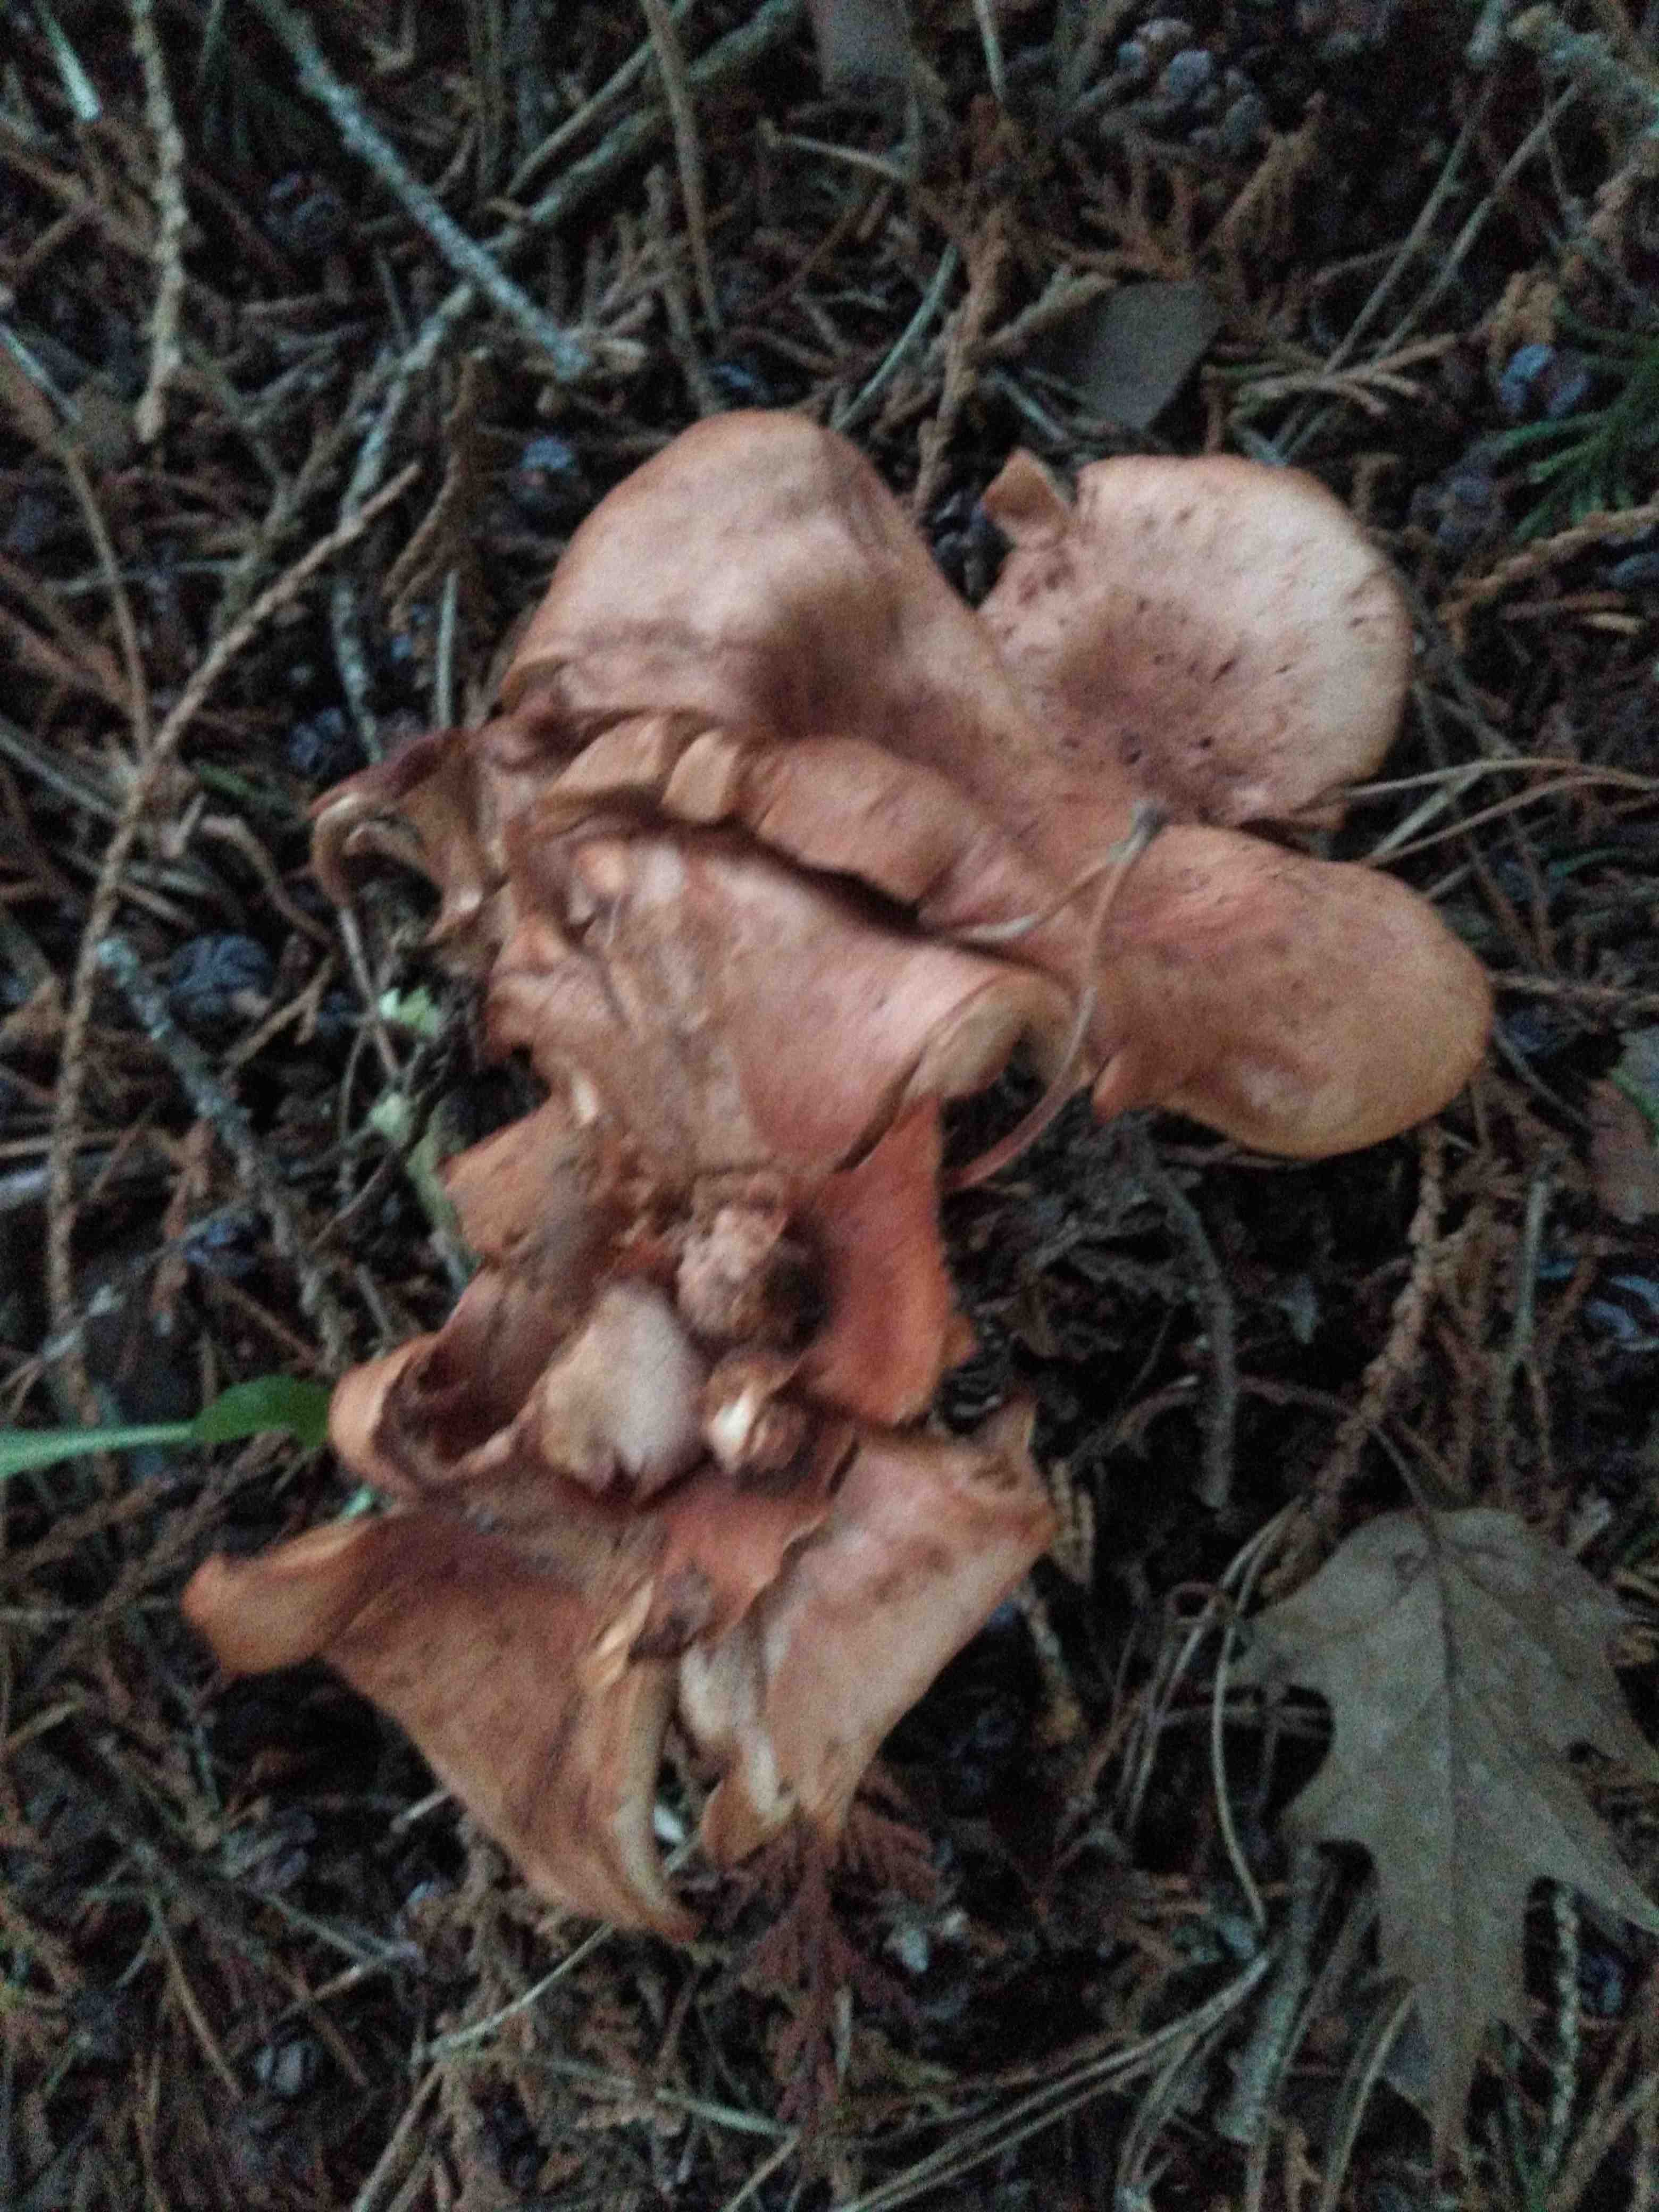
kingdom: Fungi
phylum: Basidiomycota
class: Agaricomycetes
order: Agaricales
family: Tricholomataceae
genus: Paralepista
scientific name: Paralepista flaccida
